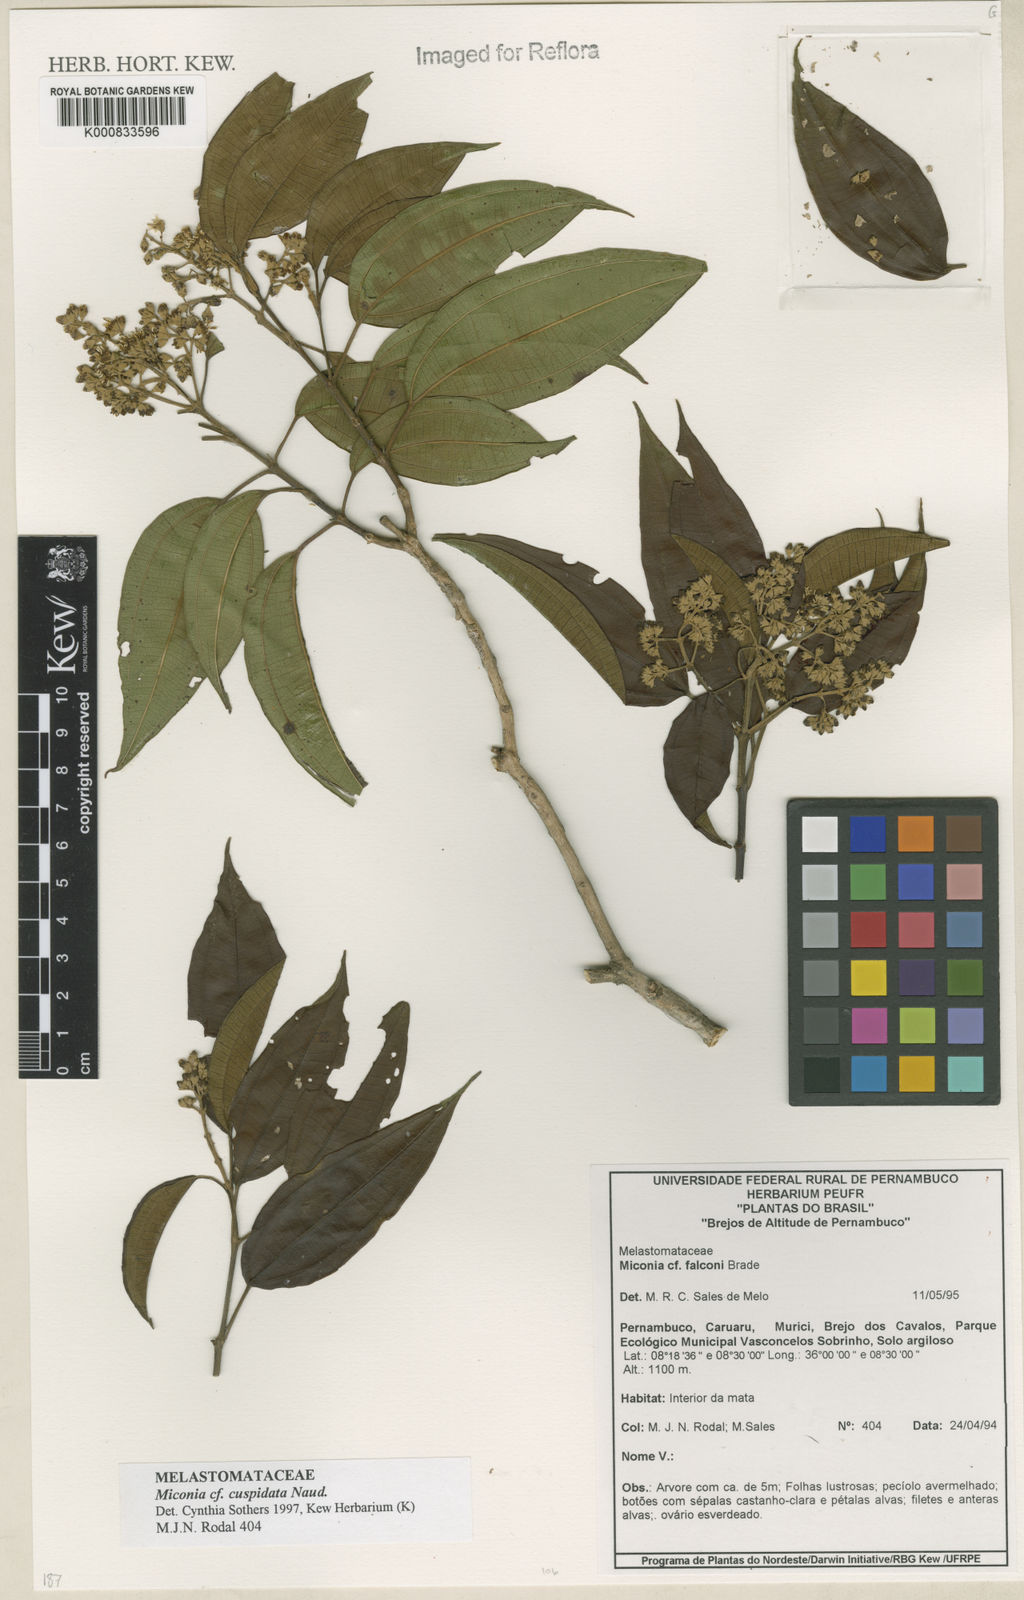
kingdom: Plantae
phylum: Tracheophyta
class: Magnoliopsida
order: Myrtales
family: Melastomataceae
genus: Miconia
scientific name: Miconia nordestina
